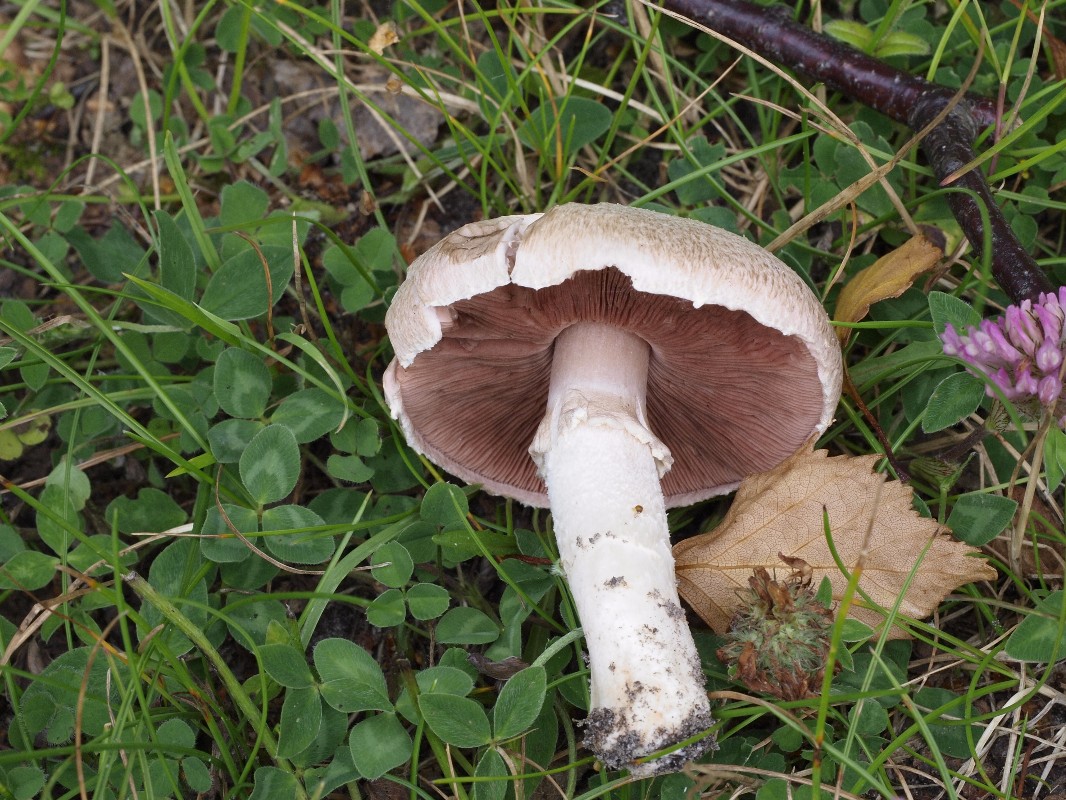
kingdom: Fungi
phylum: Basidiomycota
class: Agaricomycetes
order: Agaricales
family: Agaricaceae
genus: Agaricus
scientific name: Agaricus campestris
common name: mark-champignon
